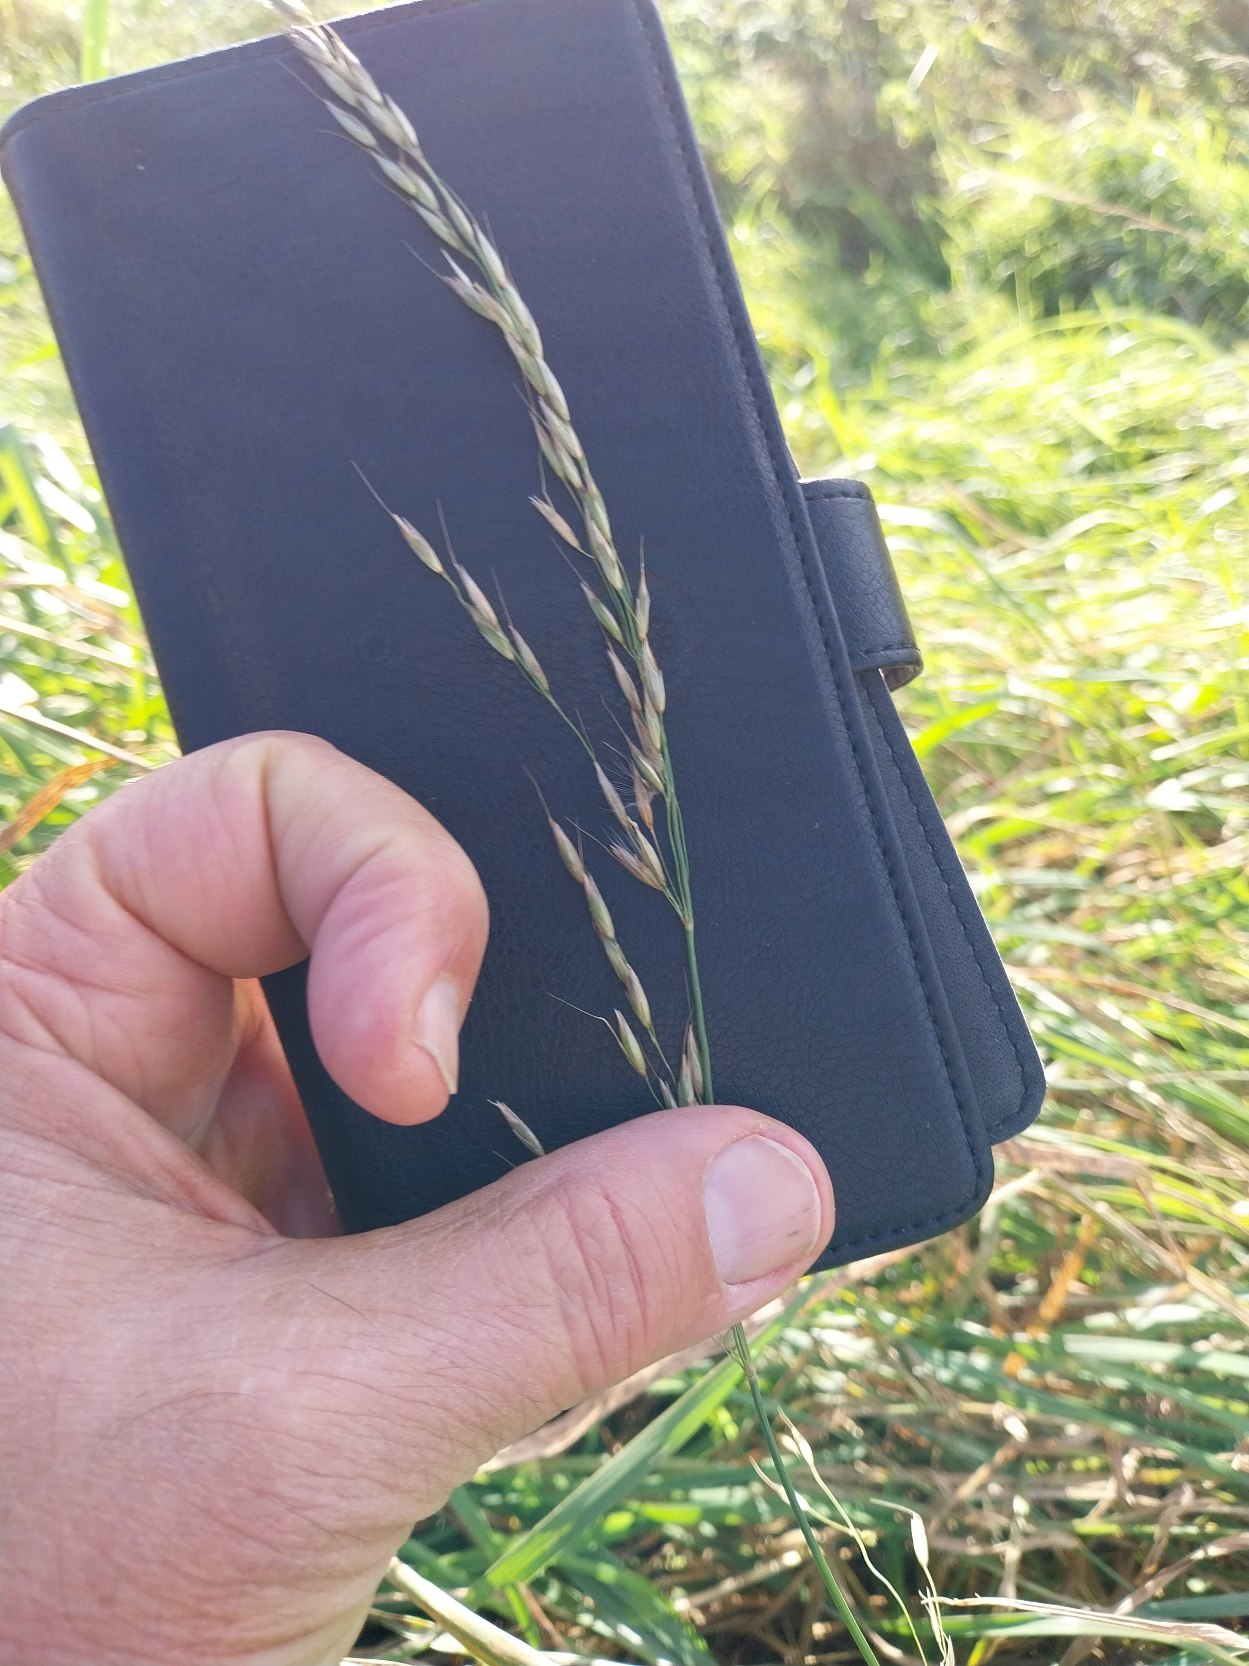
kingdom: Plantae
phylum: Tracheophyta
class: Liliopsida
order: Poales
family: Poaceae
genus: Arrhenatherum
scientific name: Arrhenatherum elatius
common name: Draphavre
